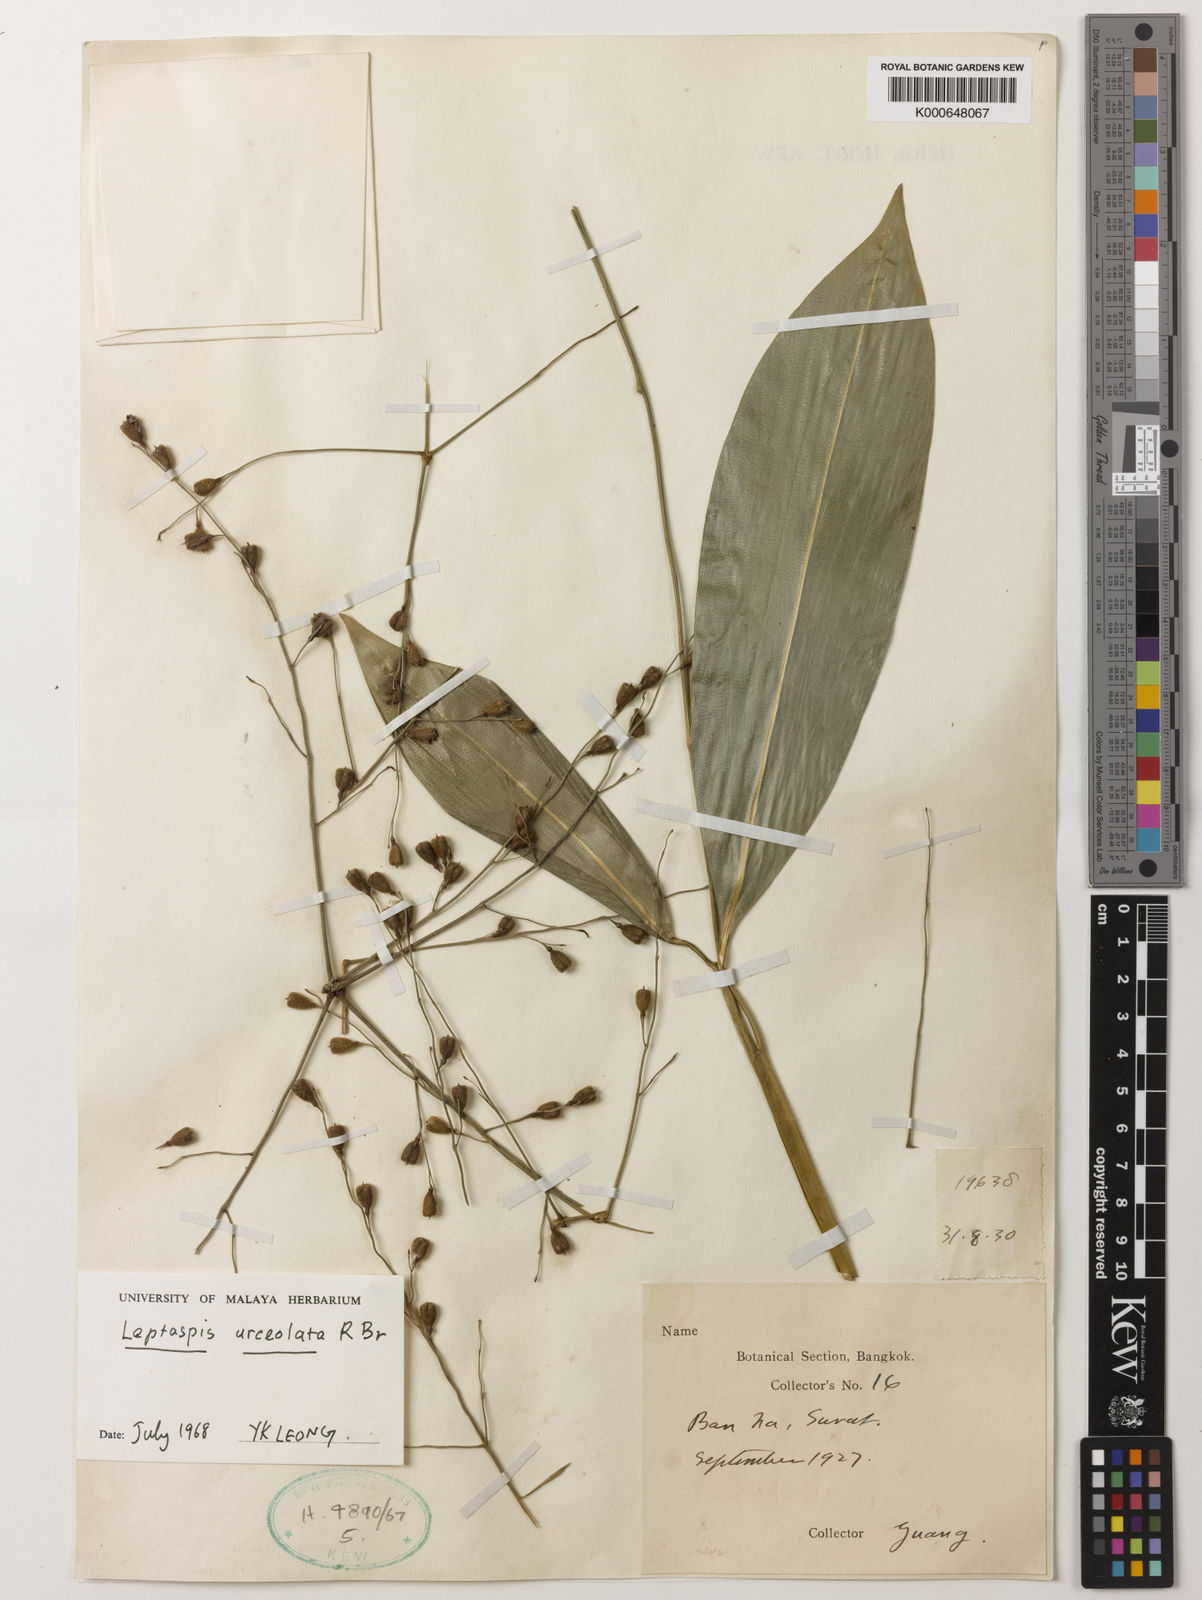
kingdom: Plantae
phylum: Tracheophyta
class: Liliopsida
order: Poales
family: Poaceae
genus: Scrotochloa
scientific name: Scrotochloa urceolata
